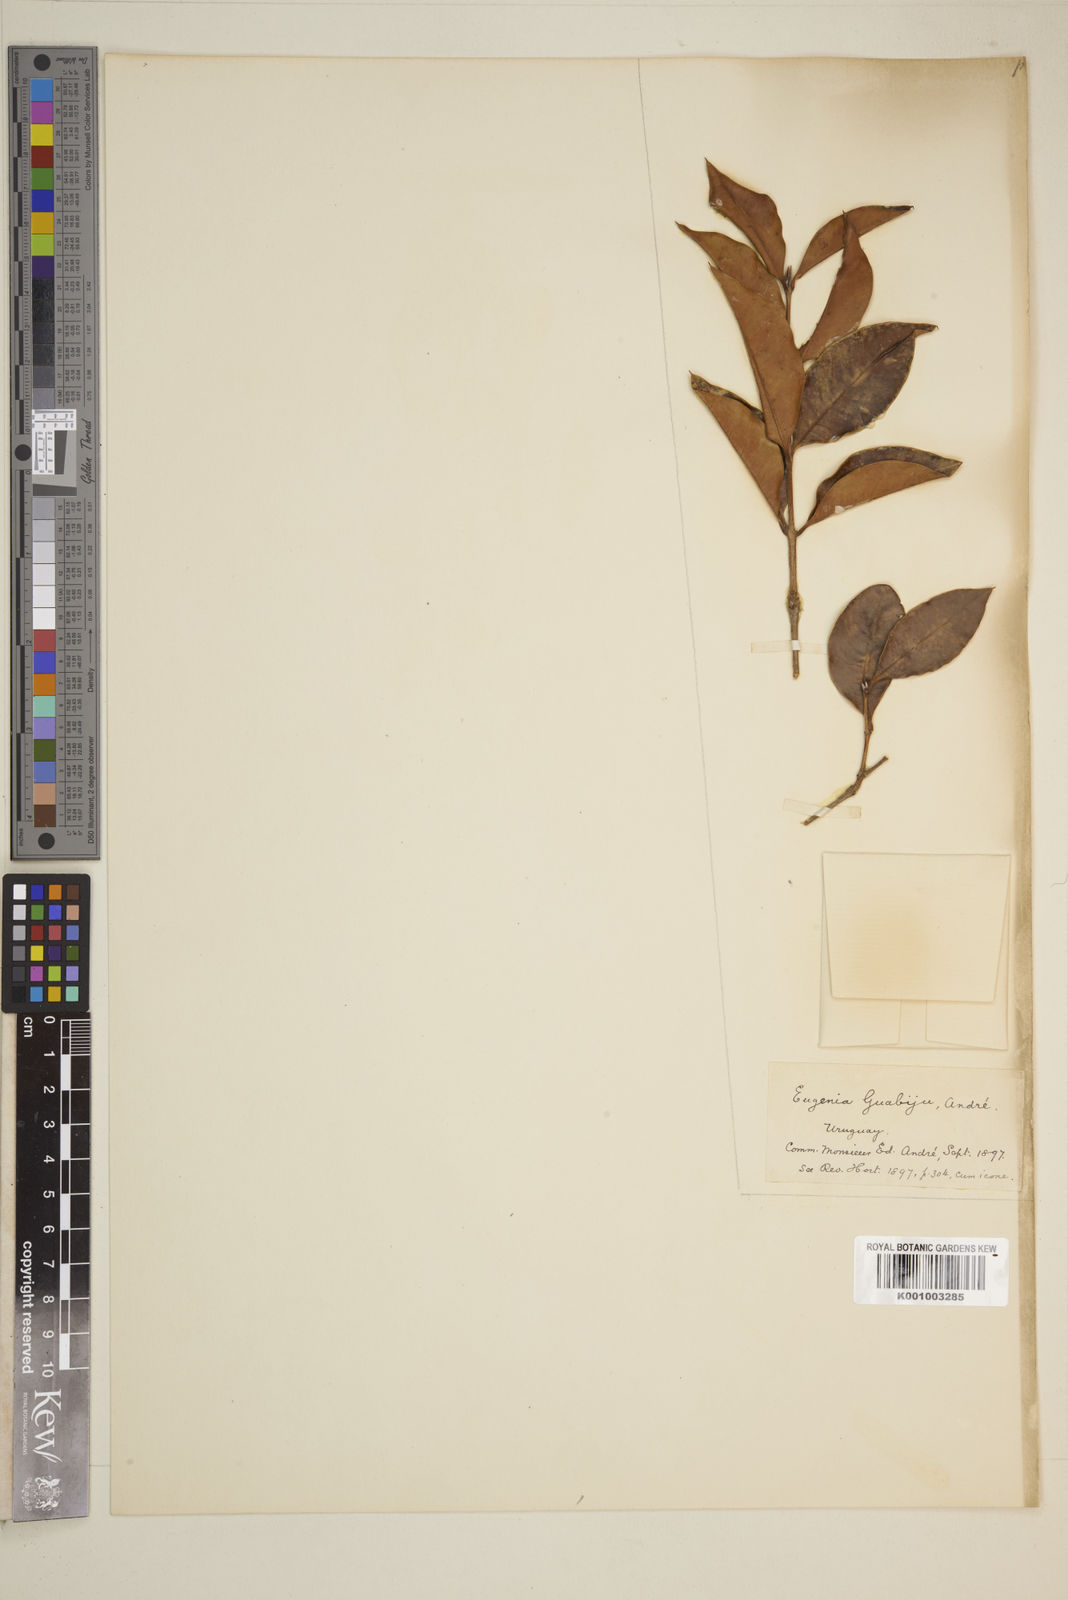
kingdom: Plantae
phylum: Tracheophyta
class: Magnoliopsida
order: Myrtales
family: Myrtaceae
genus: Eugenia
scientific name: Eugenia
